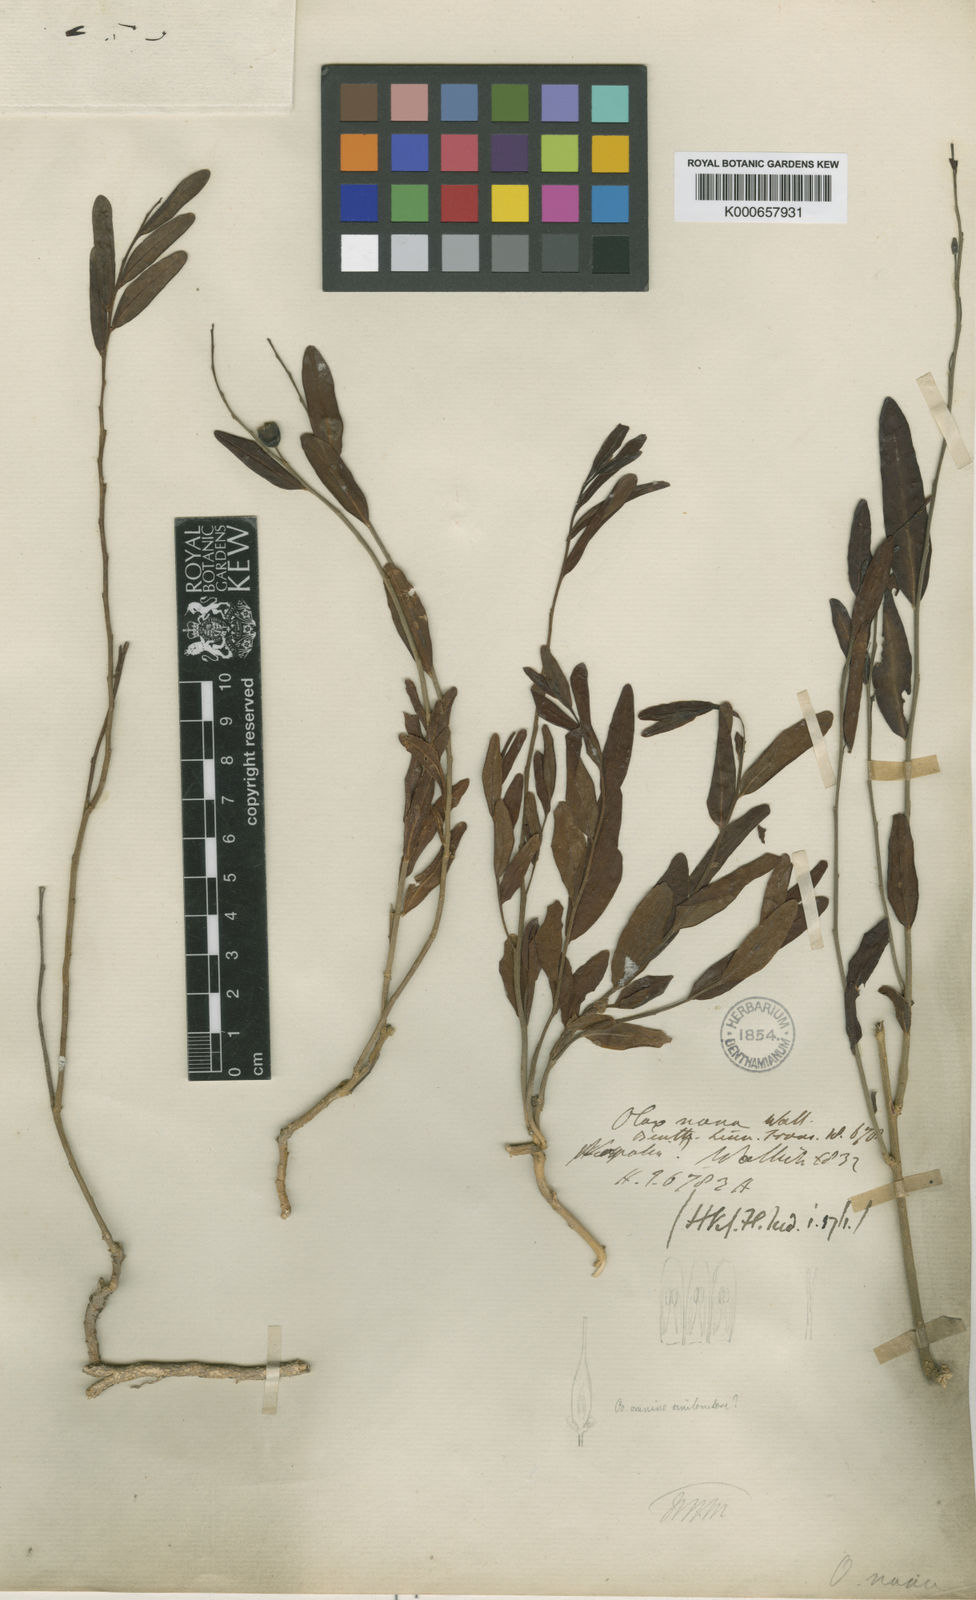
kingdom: Plantae
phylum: Tracheophyta
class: Magnoliopsida
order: Santalales
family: Olacaceae
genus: Olax
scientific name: Olax
